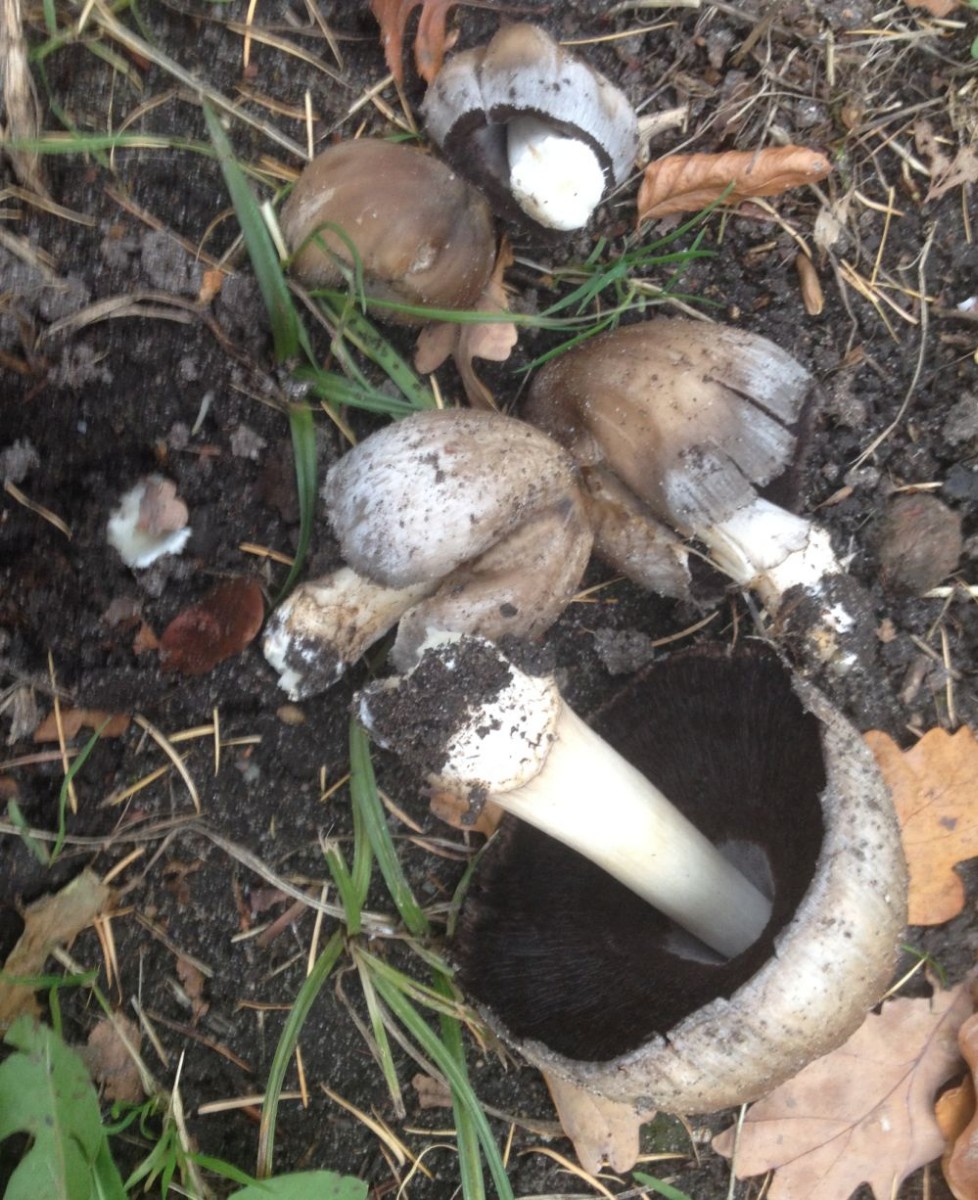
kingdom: Fungi
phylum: Basidiomycota
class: Agaricomycetes
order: Agaricales
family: Psathyrellaceae
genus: Coprinopsis
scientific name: Coprinopsis atramentaria
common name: almindelig blækhat
